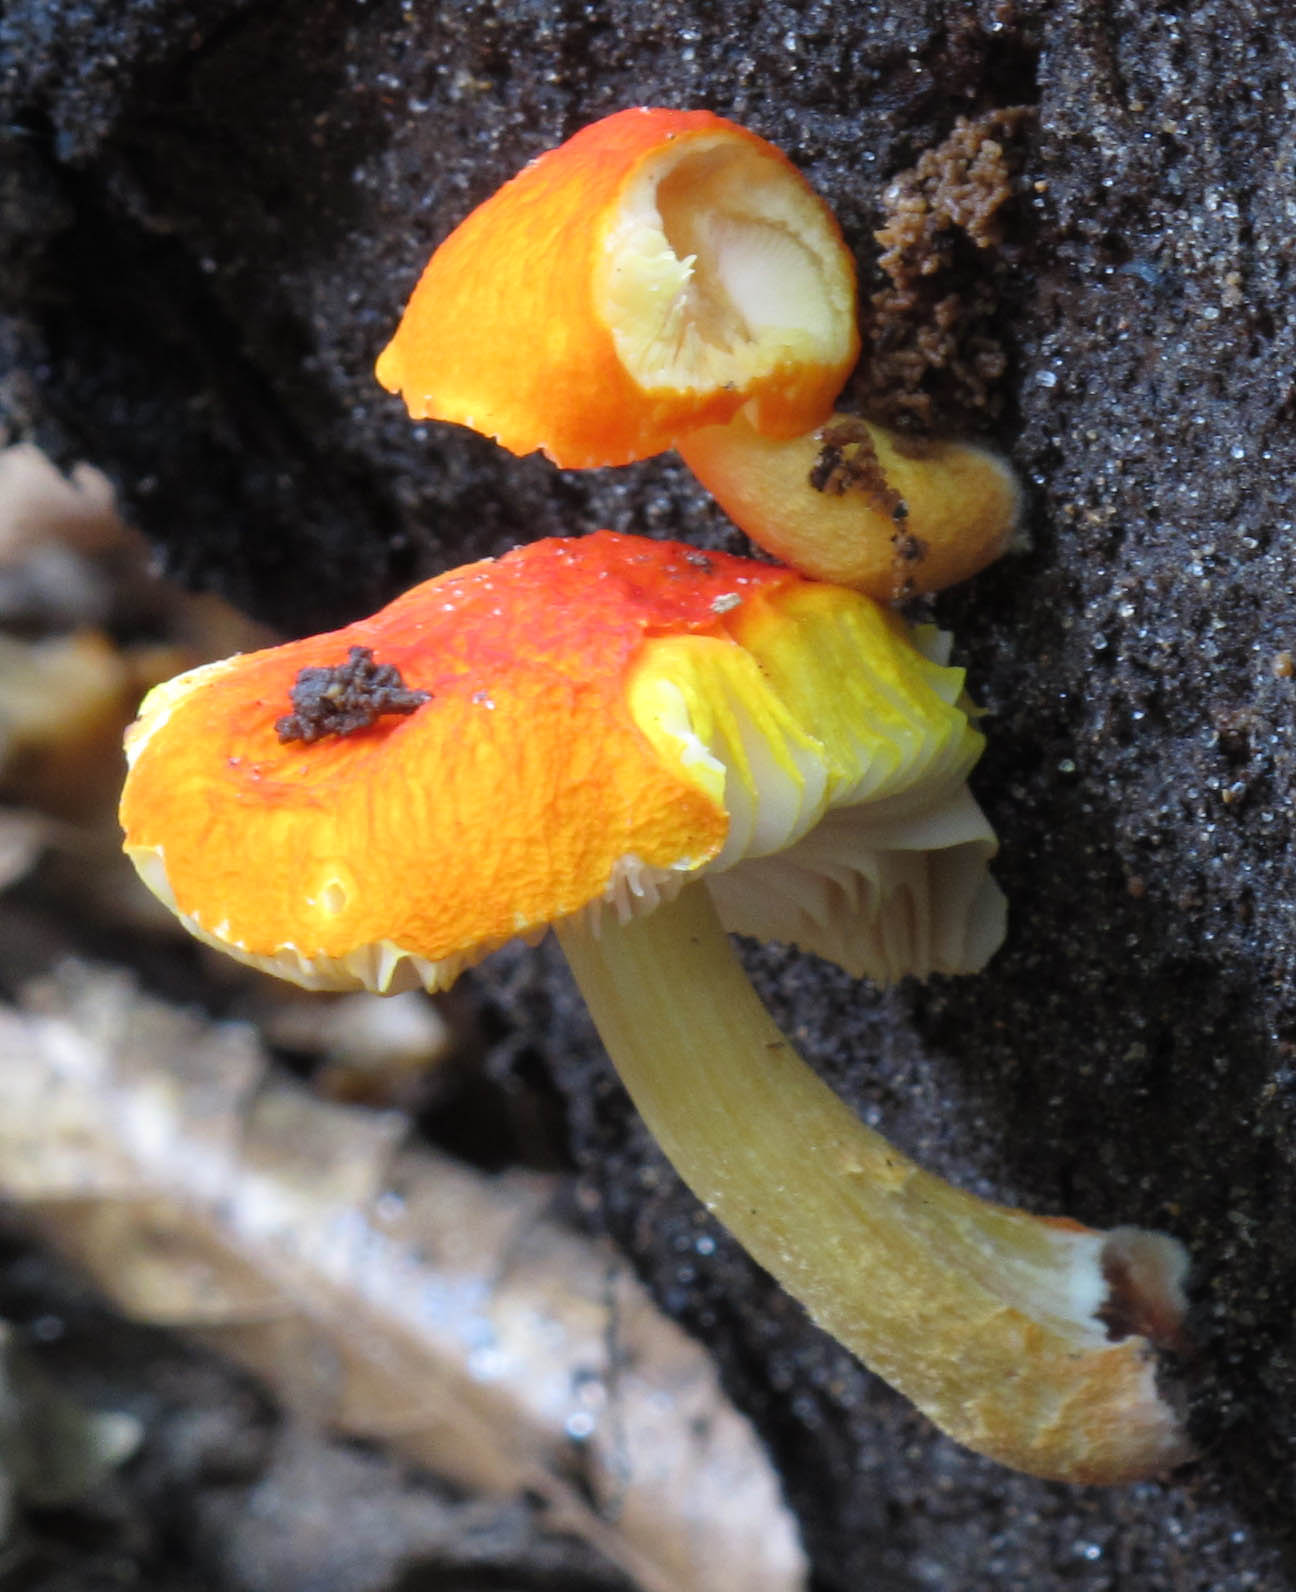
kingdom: Fungi
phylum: Basidiomycota
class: Agaricomycetes
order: Agaricales
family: Pluteaceae
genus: Pluteus
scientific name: Pluteus aurantiorugosus
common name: skarlagen-skærmhat
